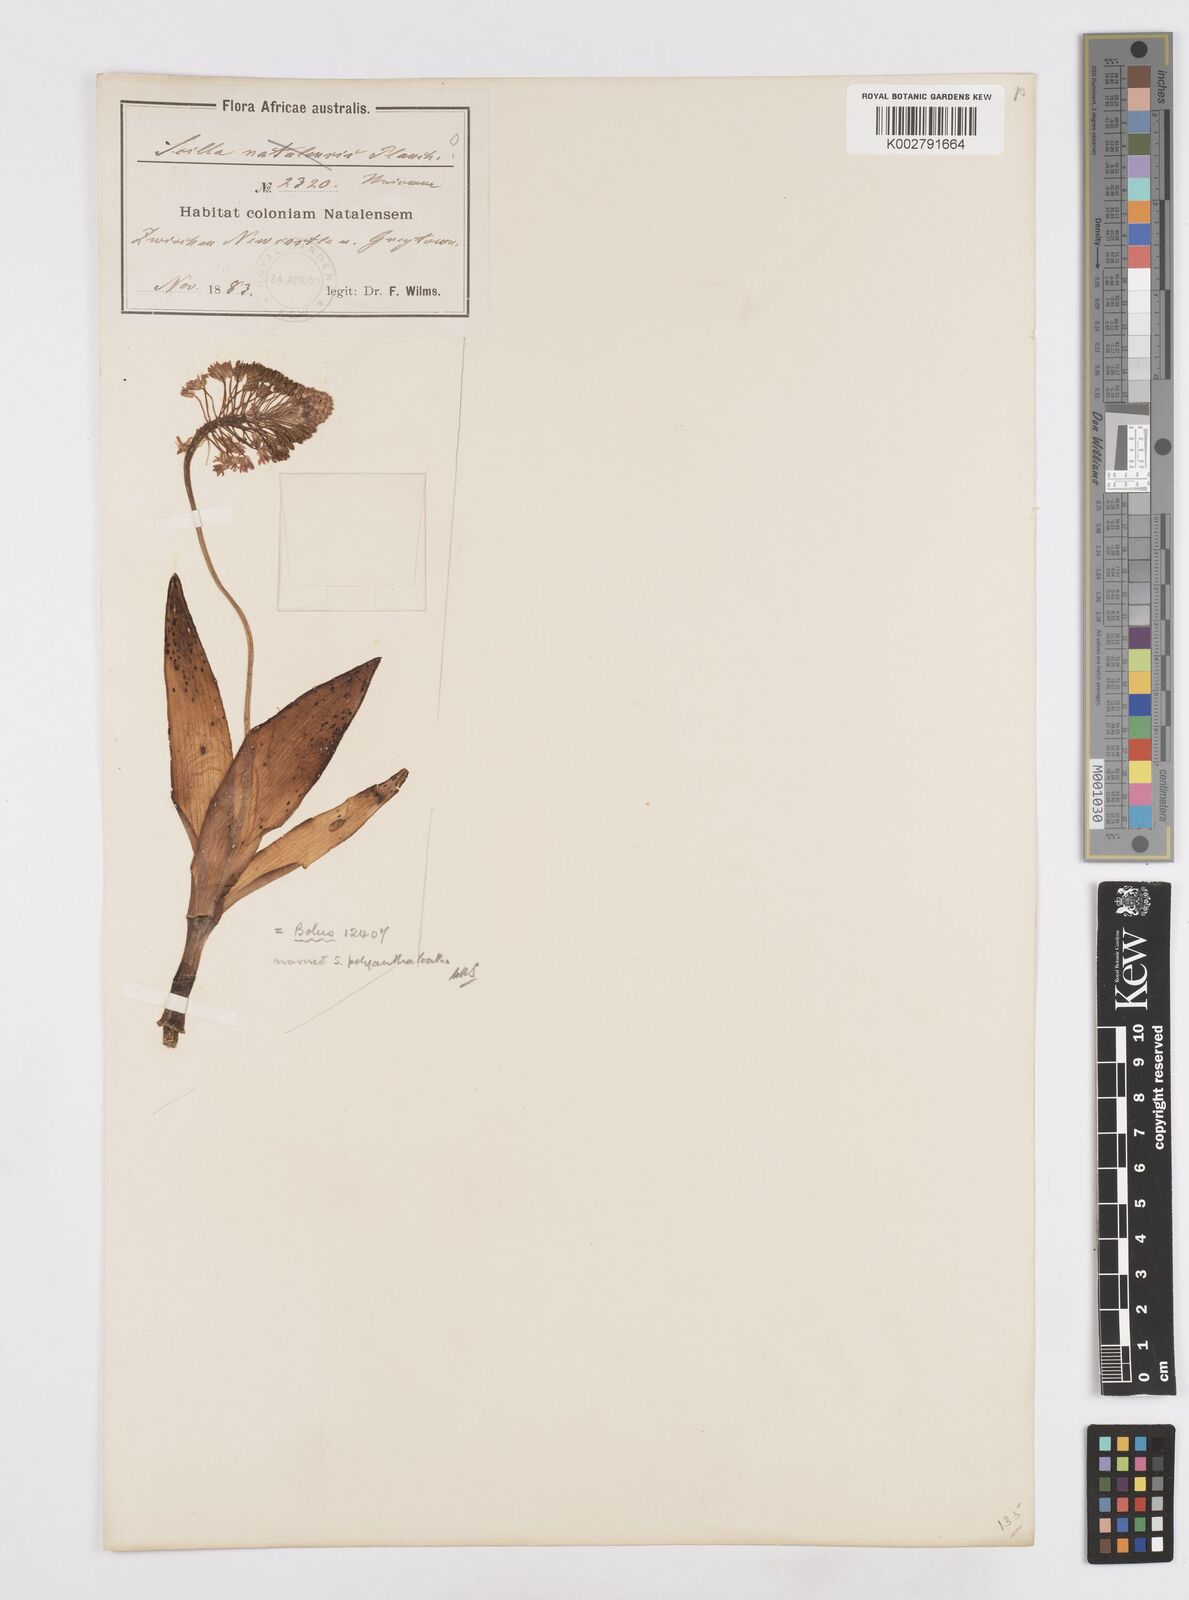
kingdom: Plantae
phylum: Tracheophyta
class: Liliopsida
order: Asparagales
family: Asparagaceae
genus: Scilla
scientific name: Scilla
